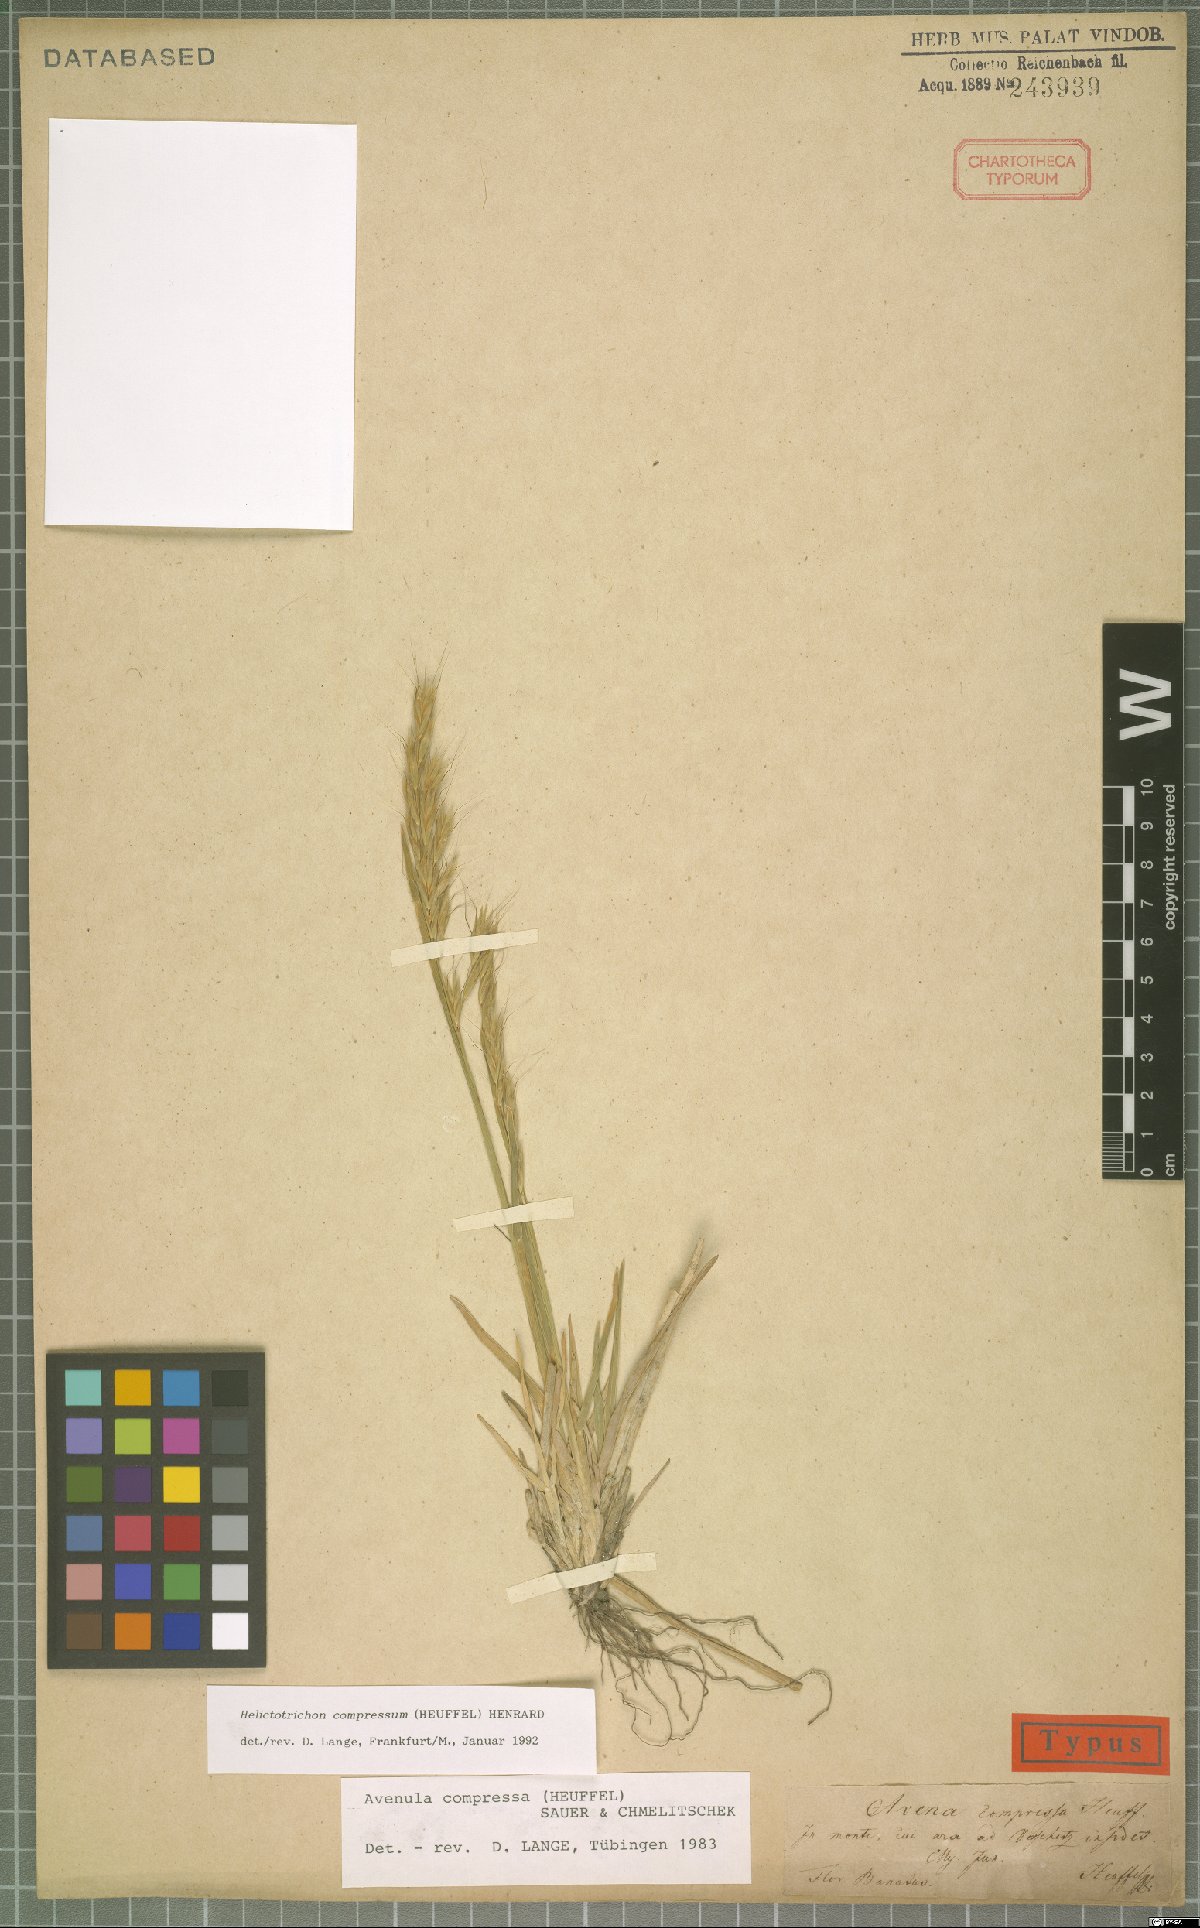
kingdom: Plantae
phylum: Tracheophyta
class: Liliopsida
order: Poales
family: Poaceae
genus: Helictochloa
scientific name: Helictochloa compressa
